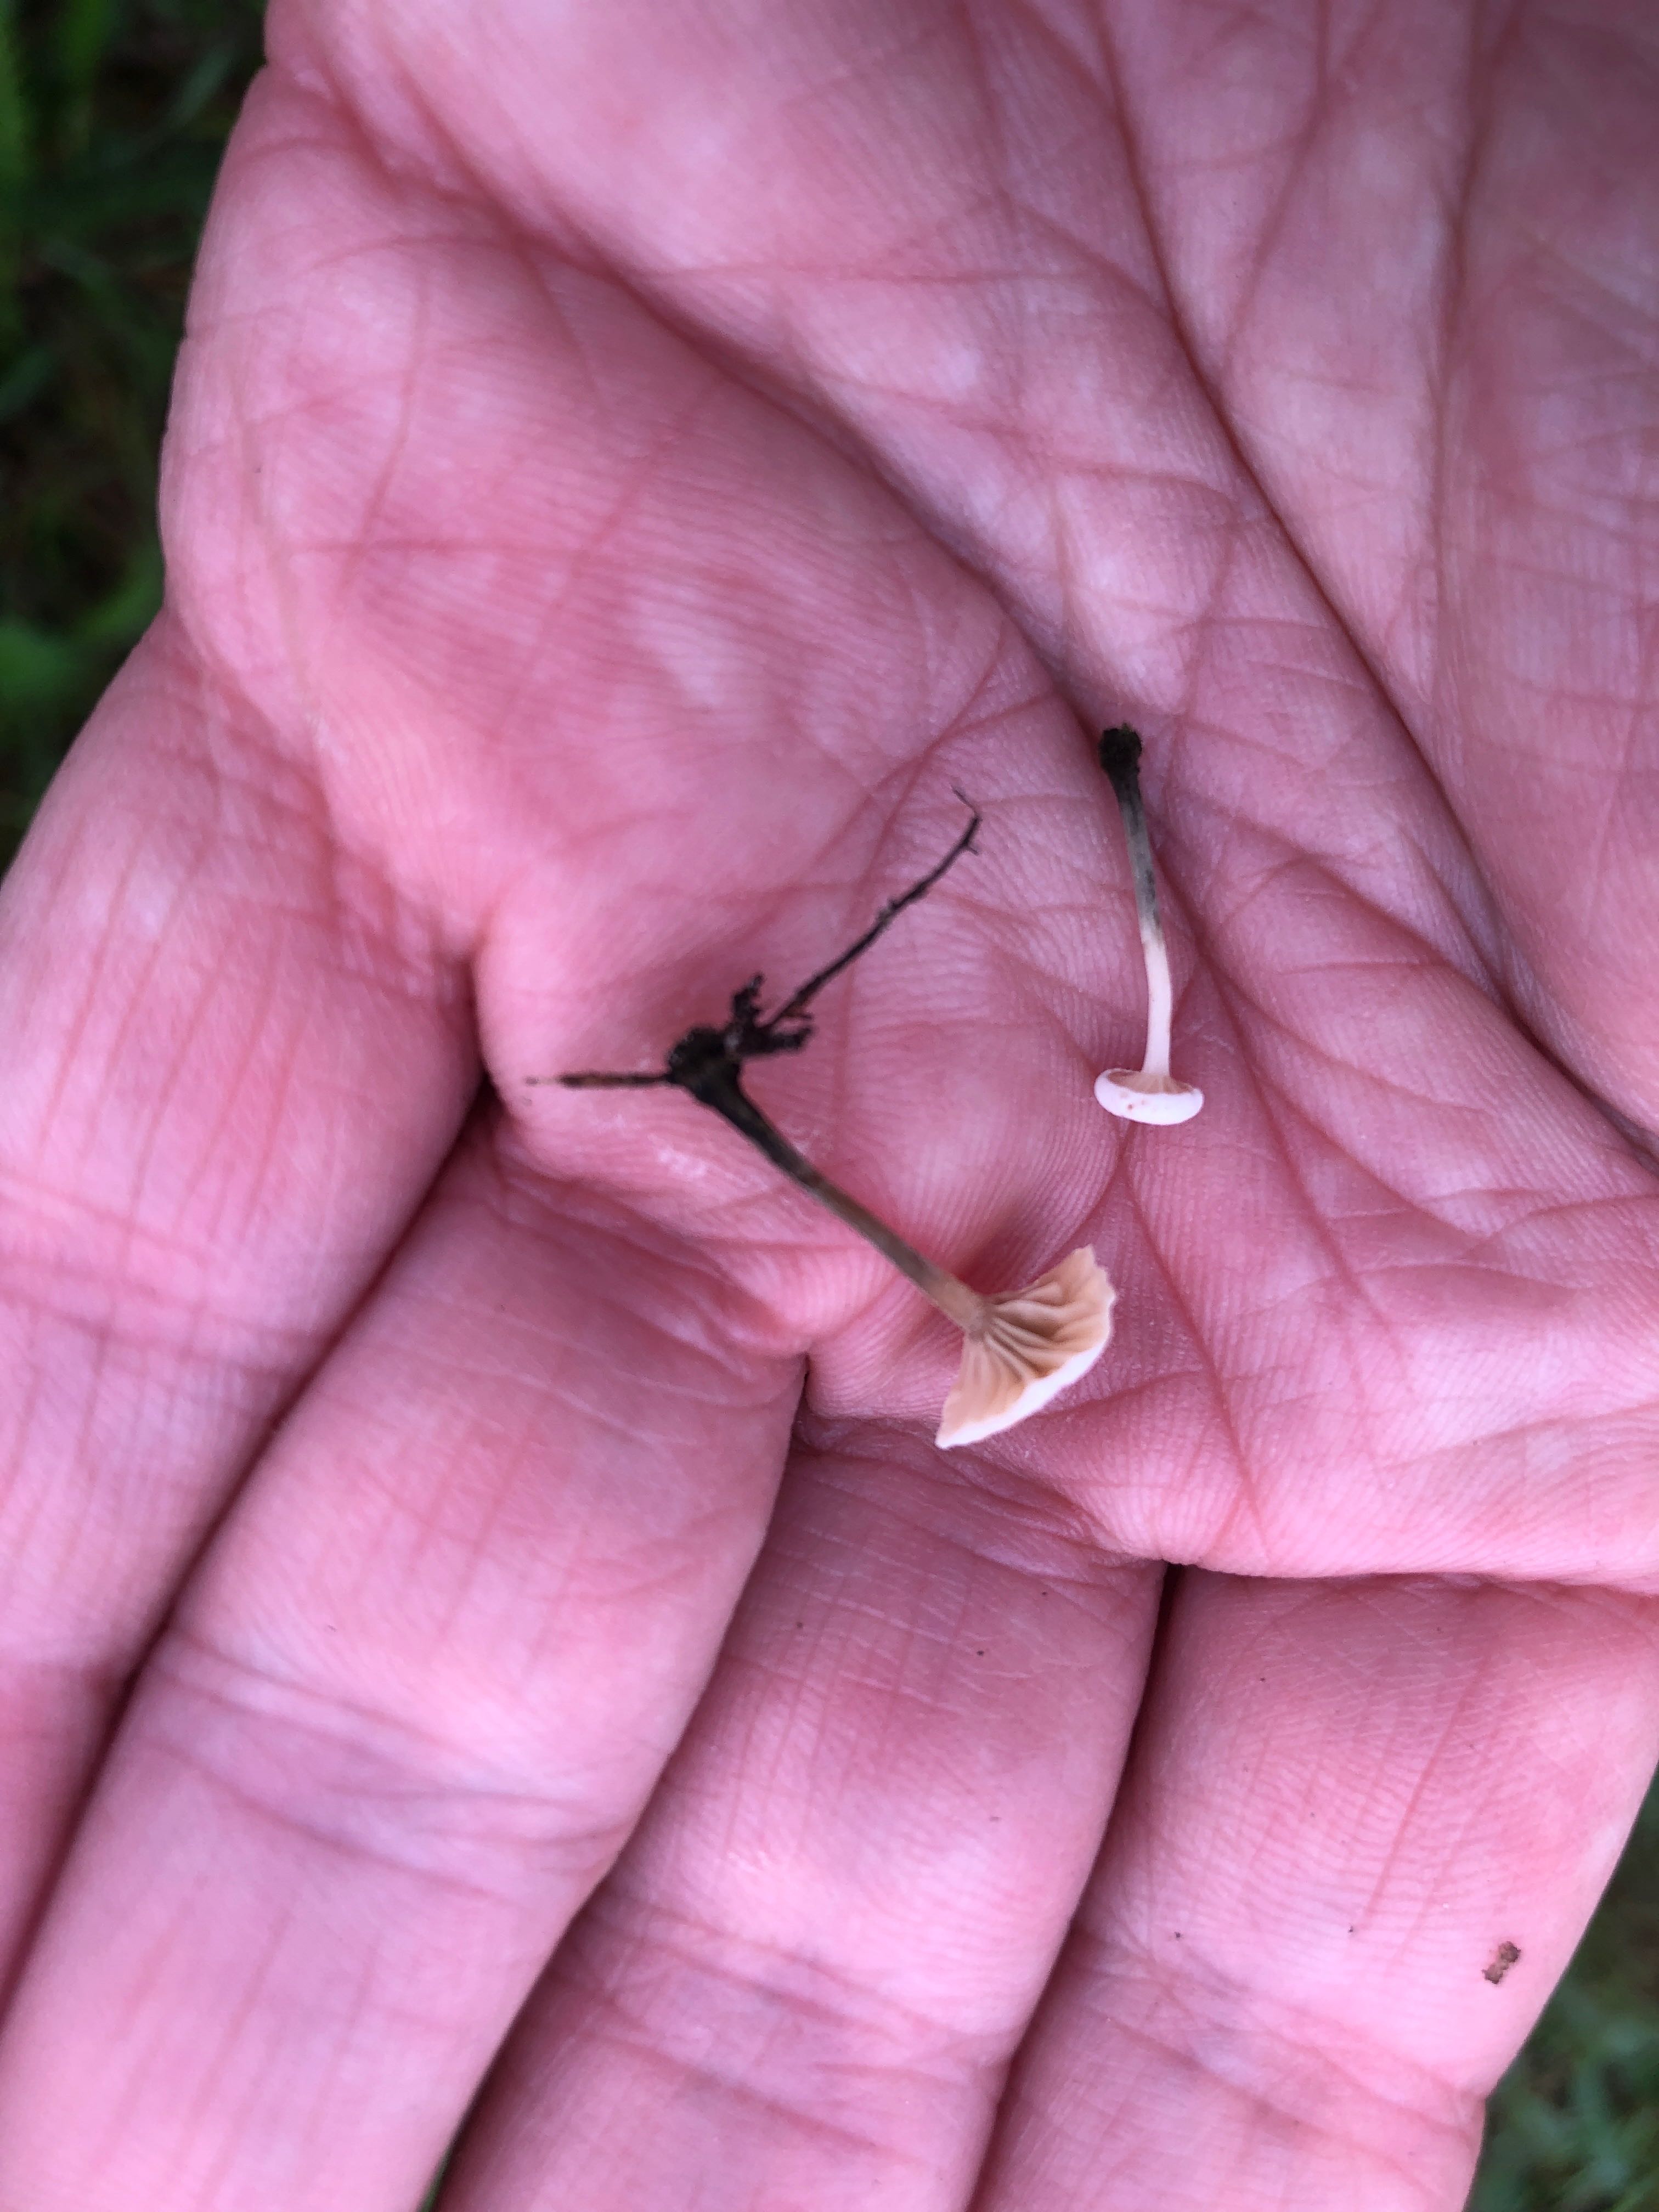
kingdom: Fungi
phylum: Basidiomycota
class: Agaricomycetes
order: Agaricales
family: Omphalotaceae
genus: Marasmiellus
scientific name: Marasmiellus tricolor
